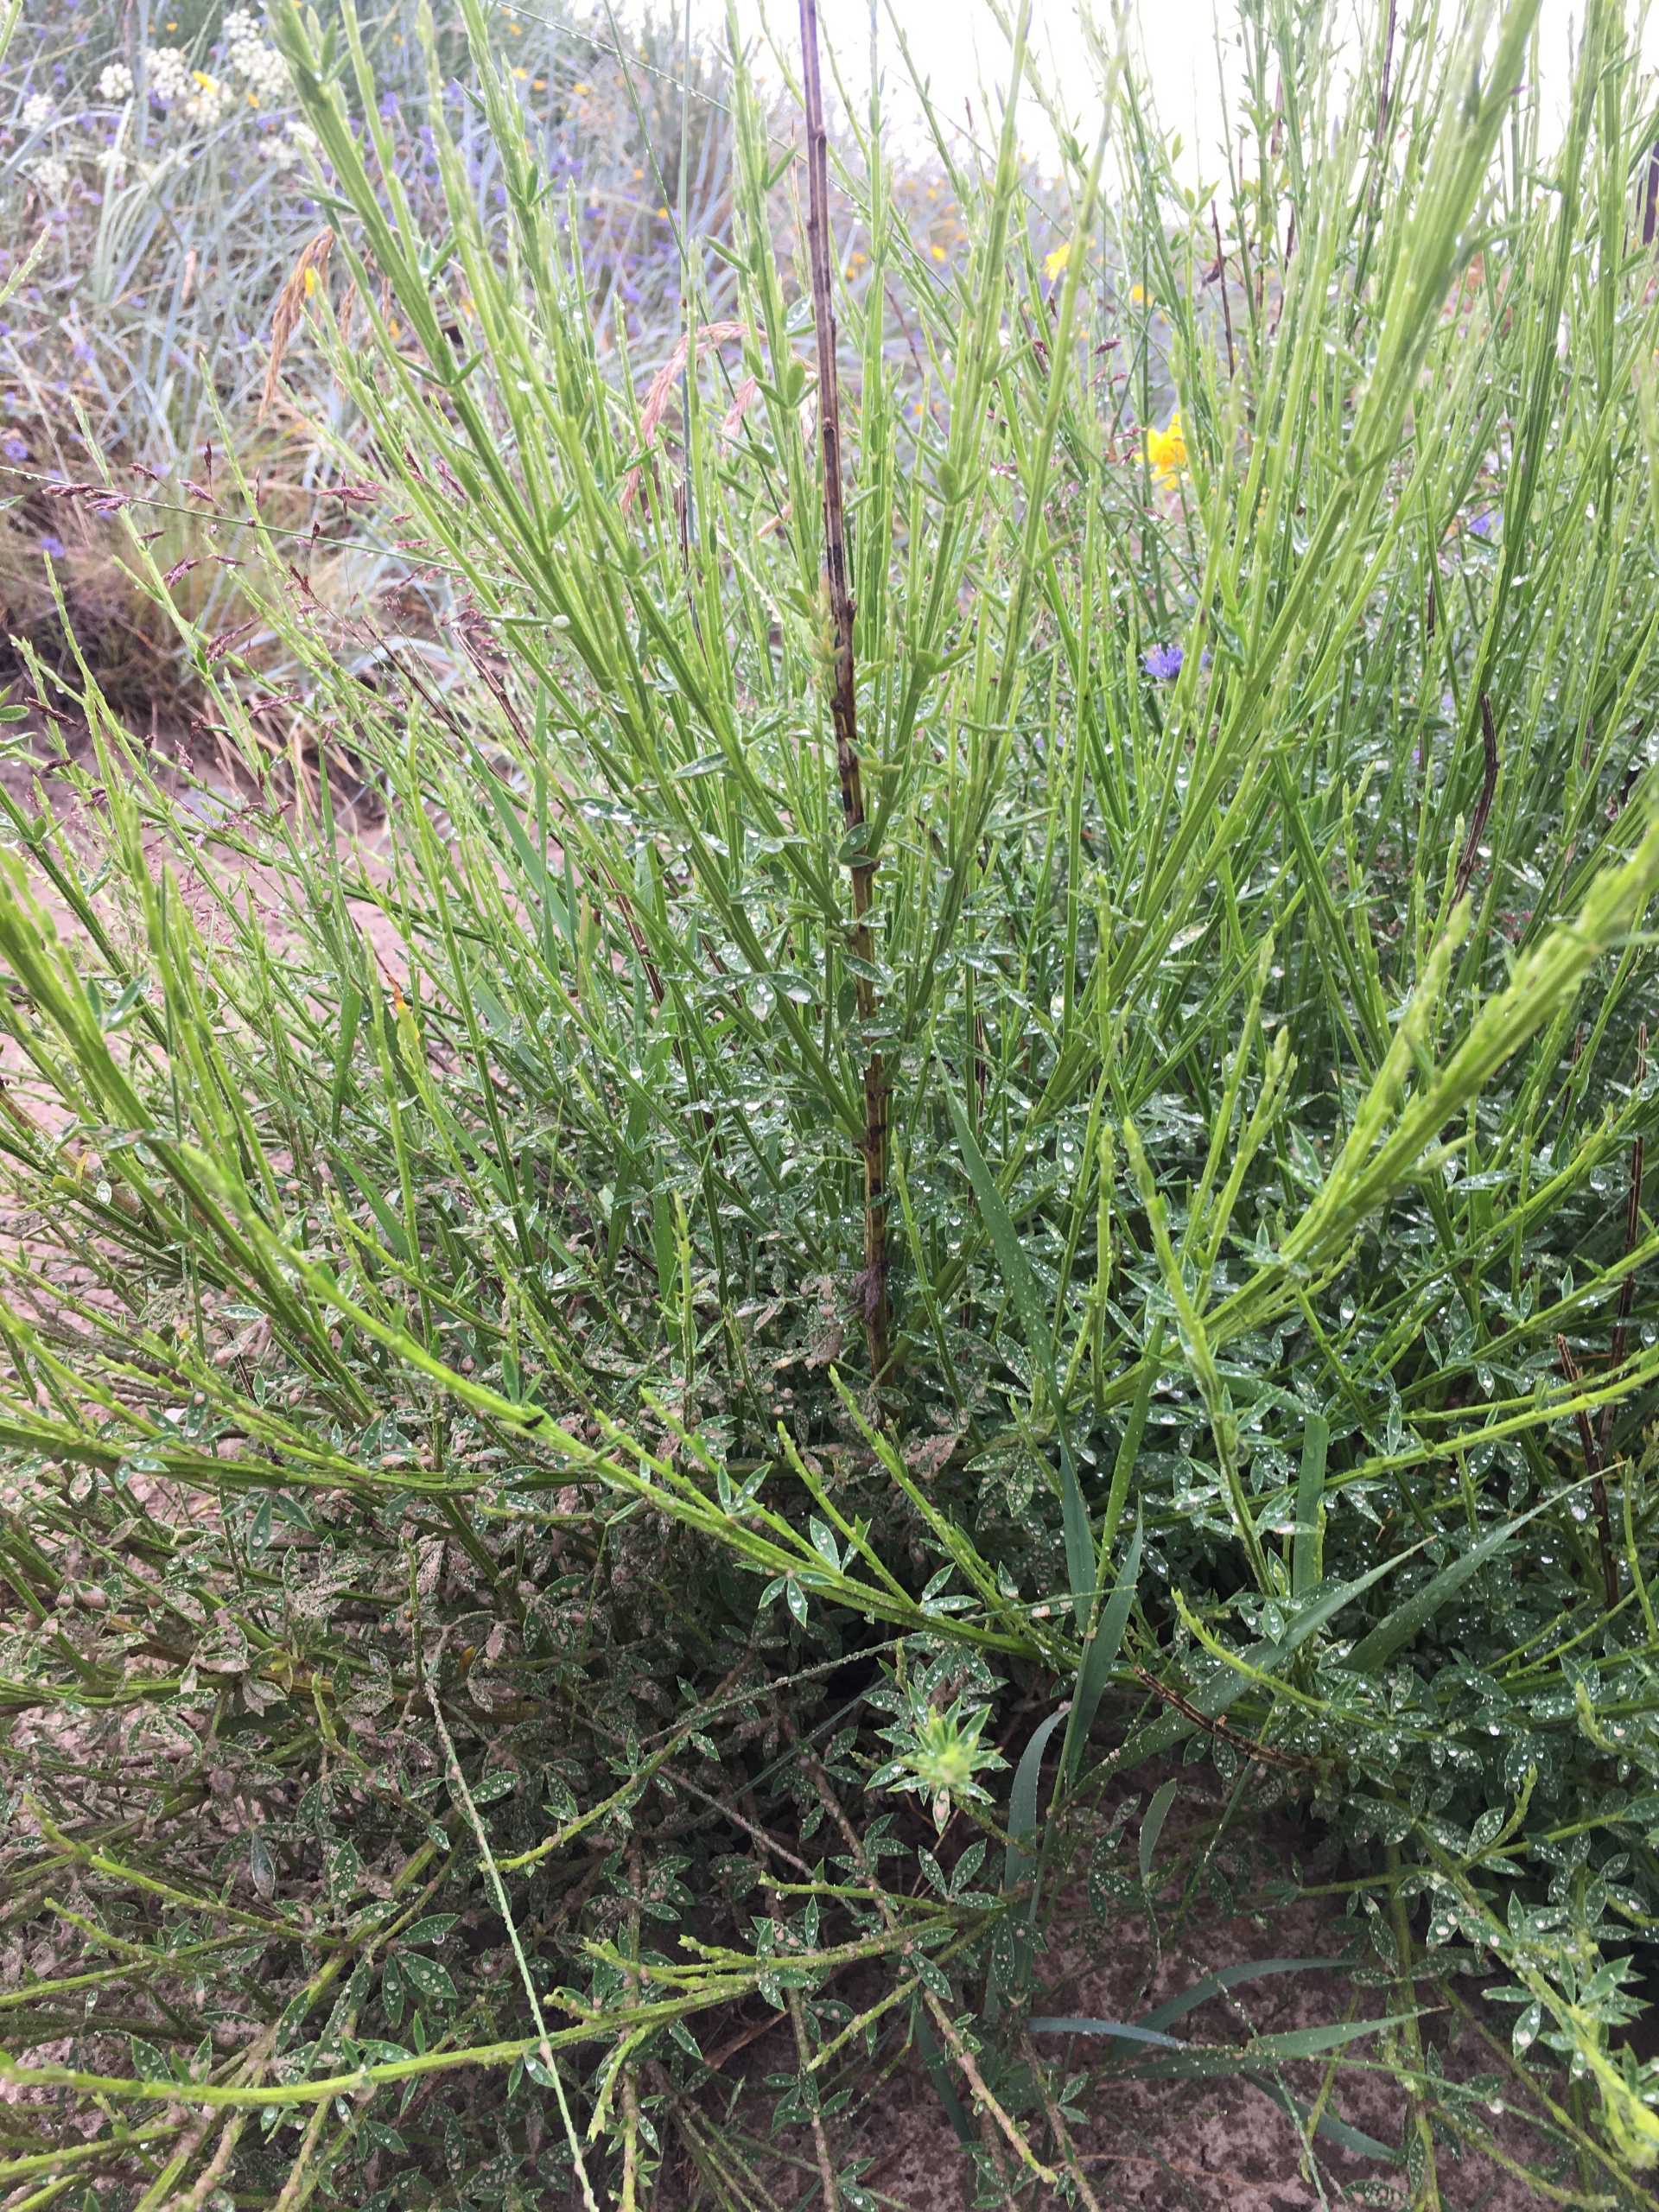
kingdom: Plantae
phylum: Tracheophyta
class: Magnoliopsida
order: Fabales
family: Fabaceae
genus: Cytisus
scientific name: Cytisus scoparius
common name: Almindelig gyvel
